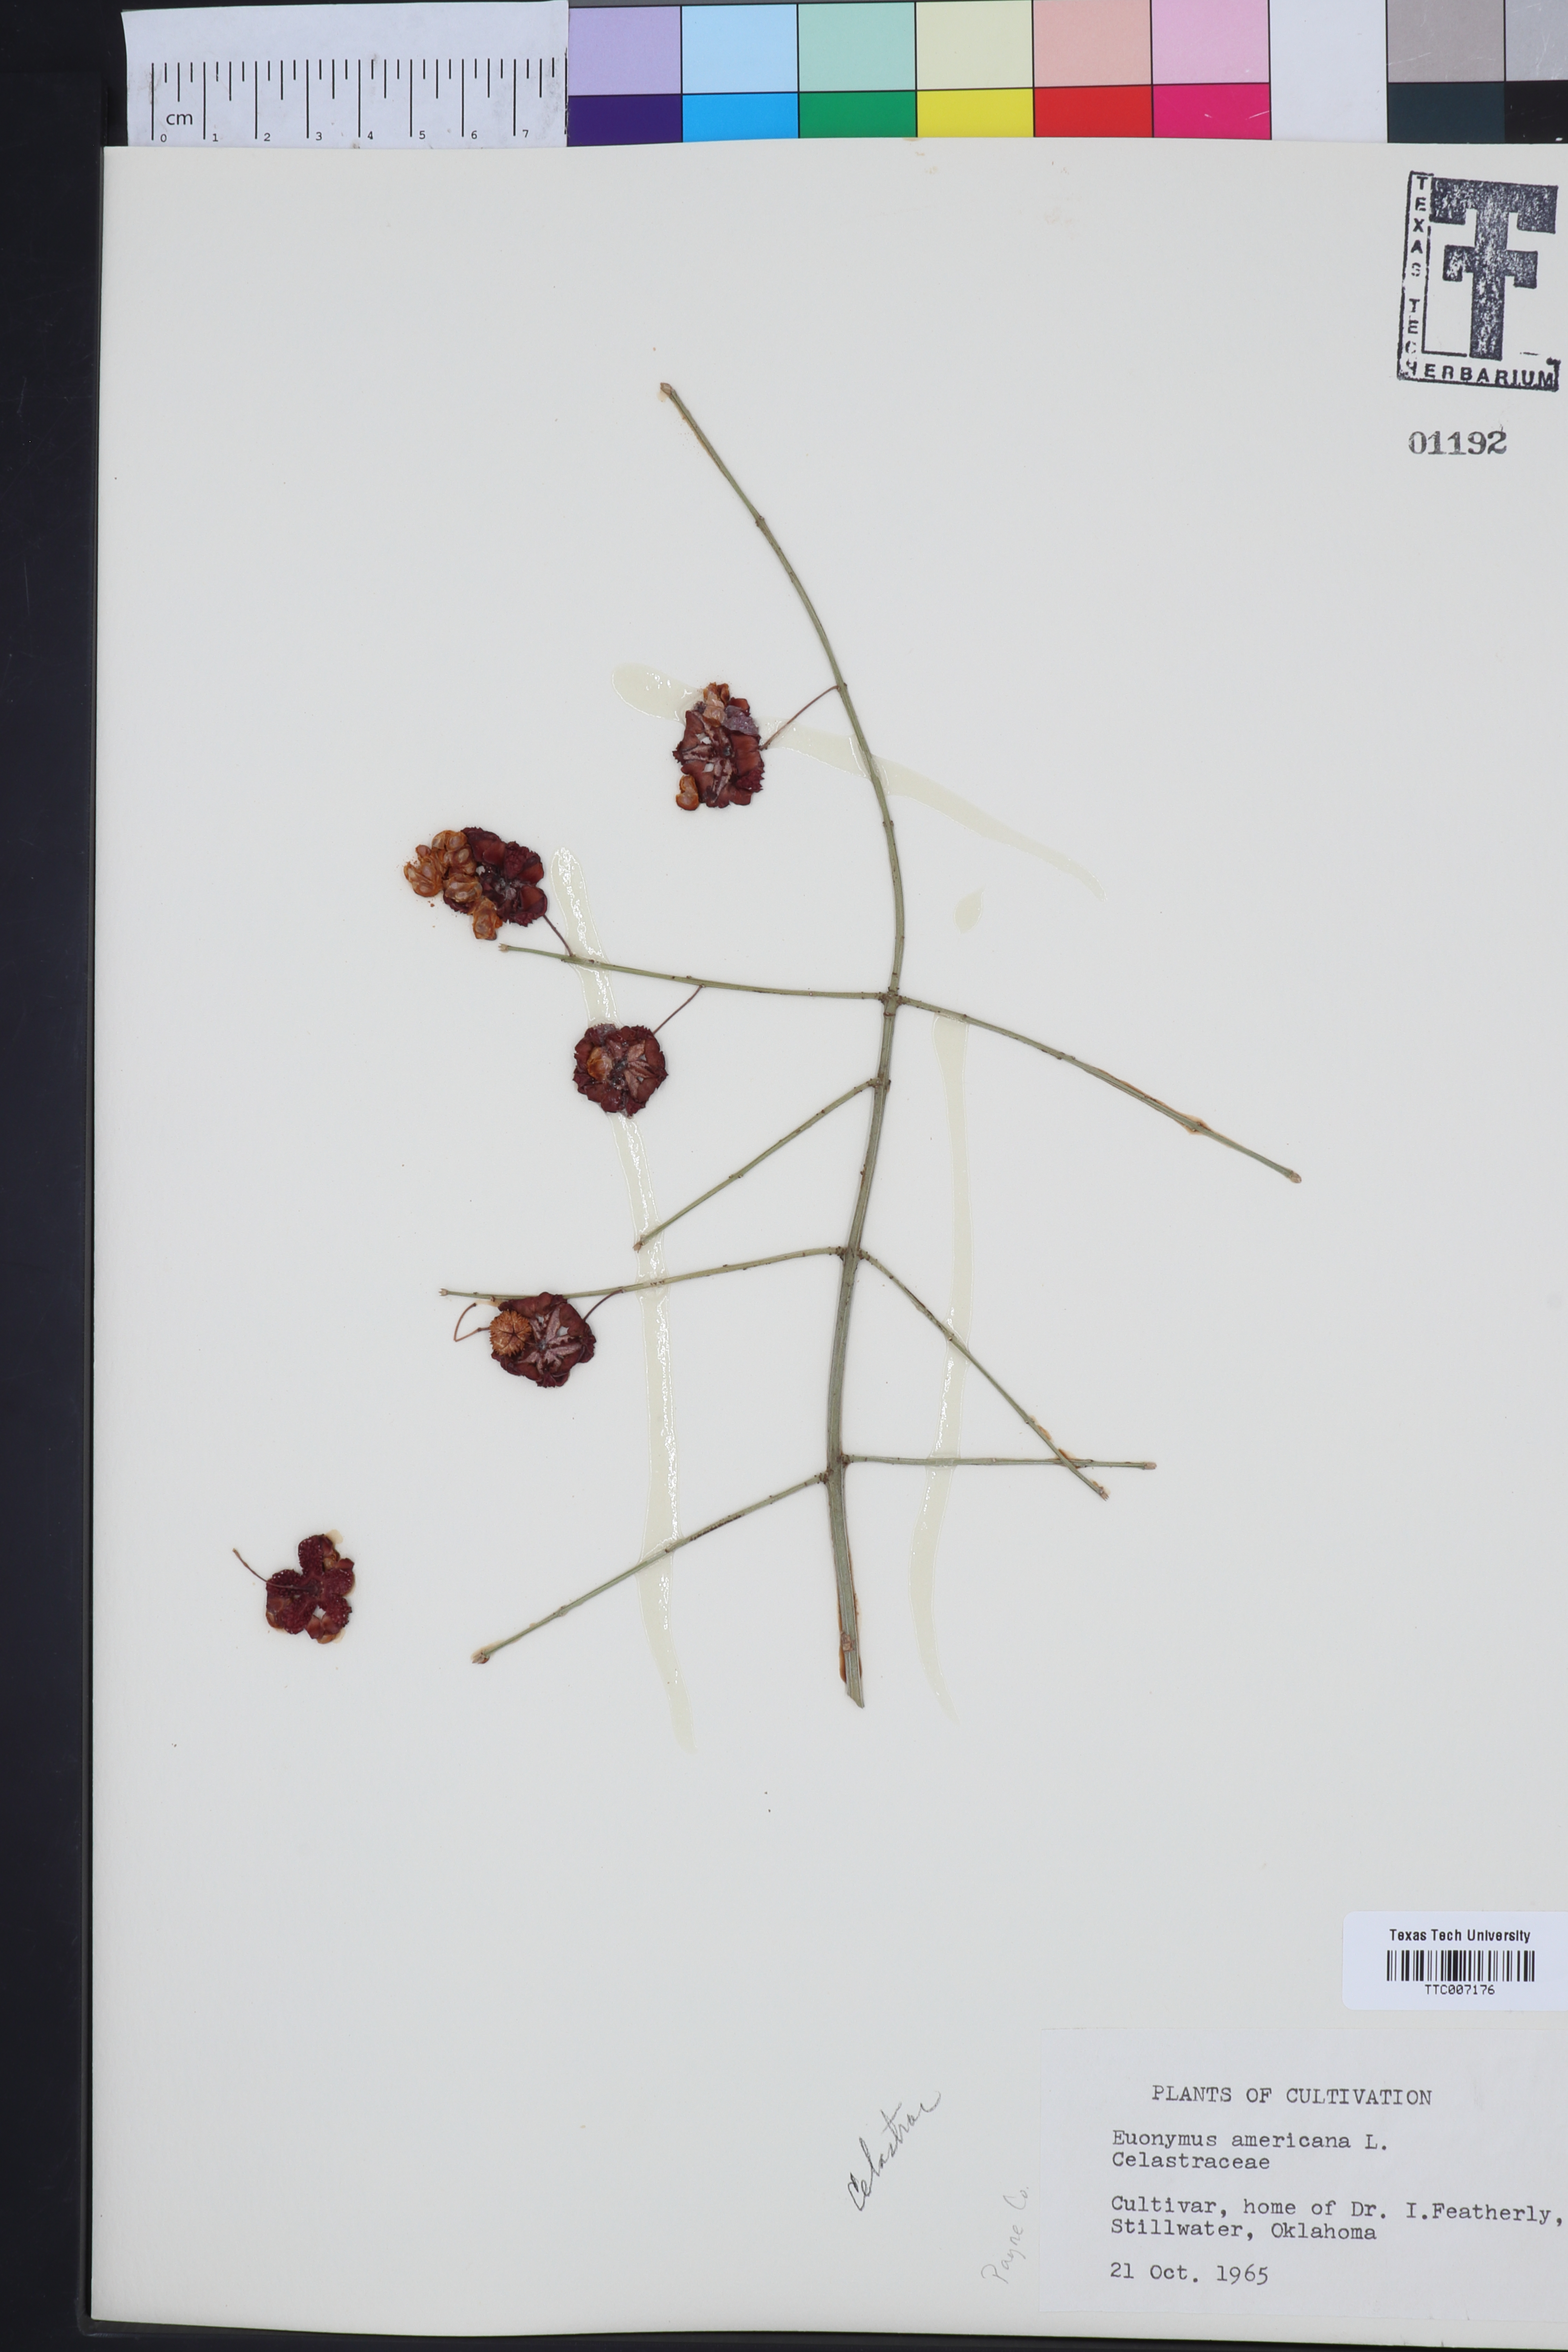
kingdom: Plantae
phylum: Tracheophyta
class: Magnoliopsida
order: Celastrales
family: Celastraceae
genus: Euonymus
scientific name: Euonymus americanus
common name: Bursting-heart
